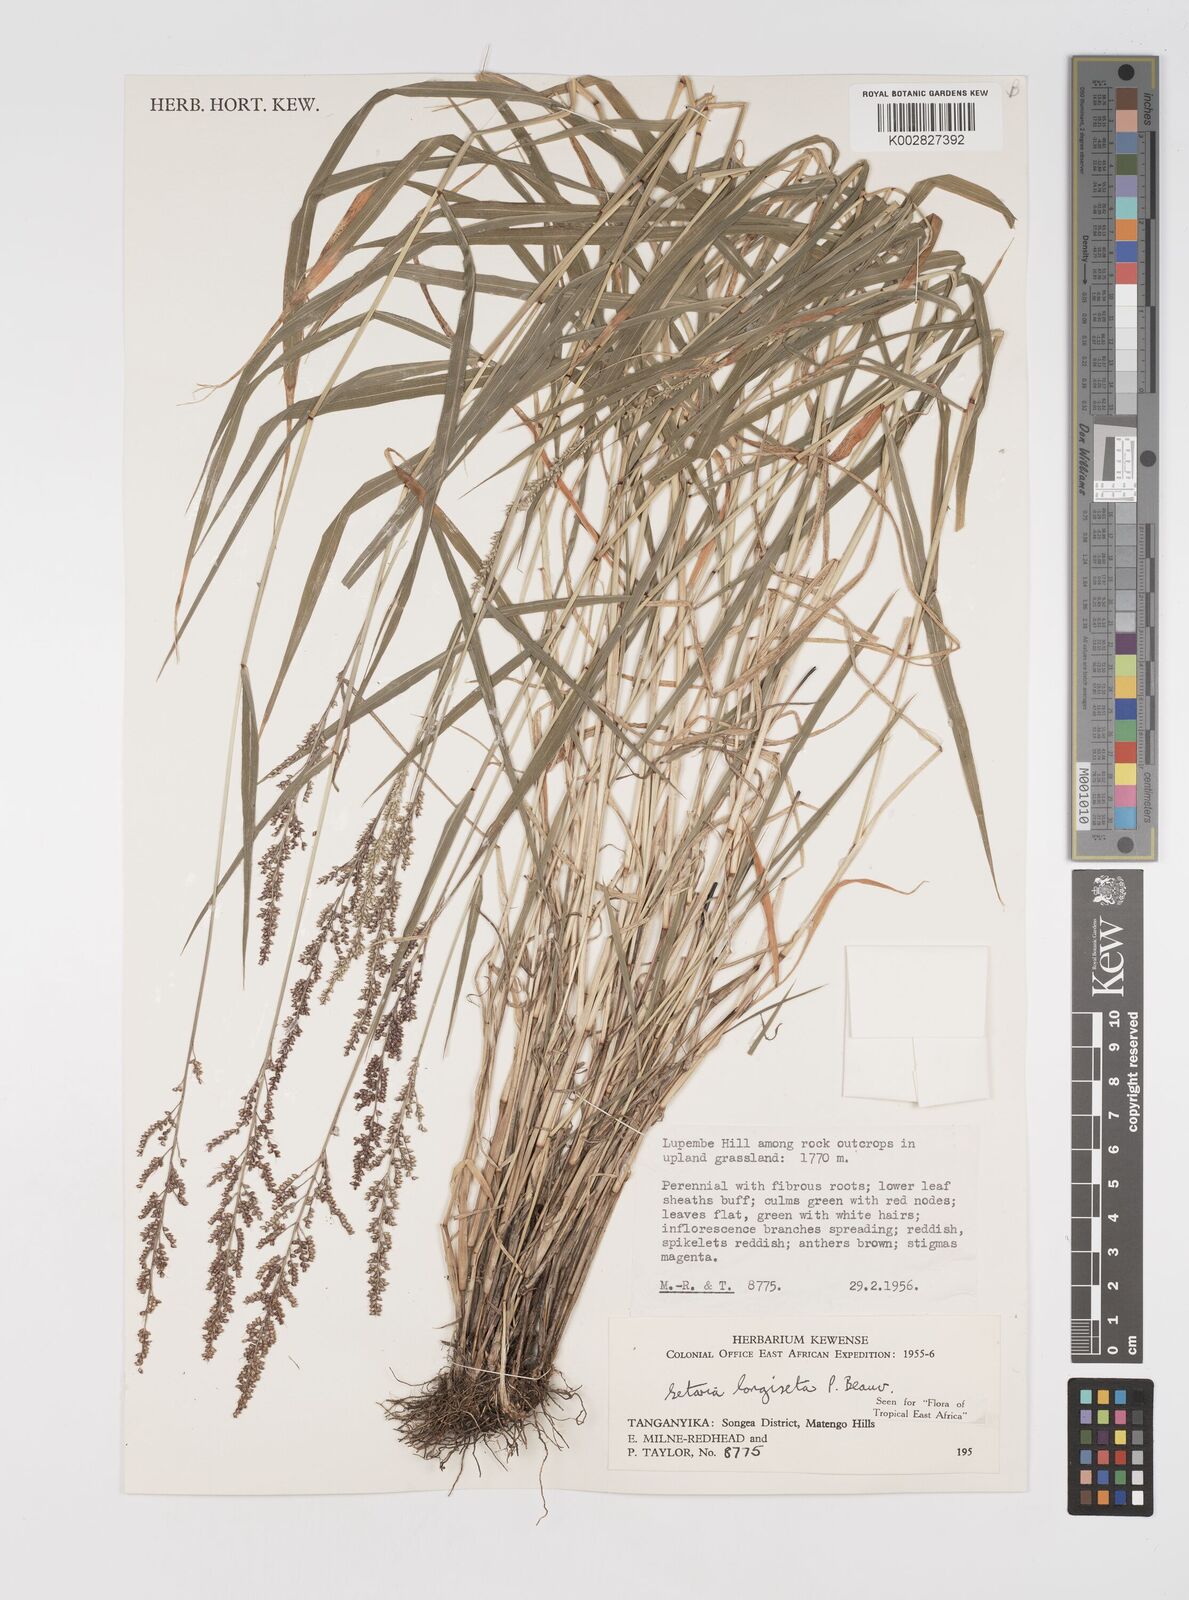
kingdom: Plantae
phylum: Tracheophyta
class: Liliopsida
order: Poales
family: Poaceae
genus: Setaria
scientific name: Setaria longiseta
